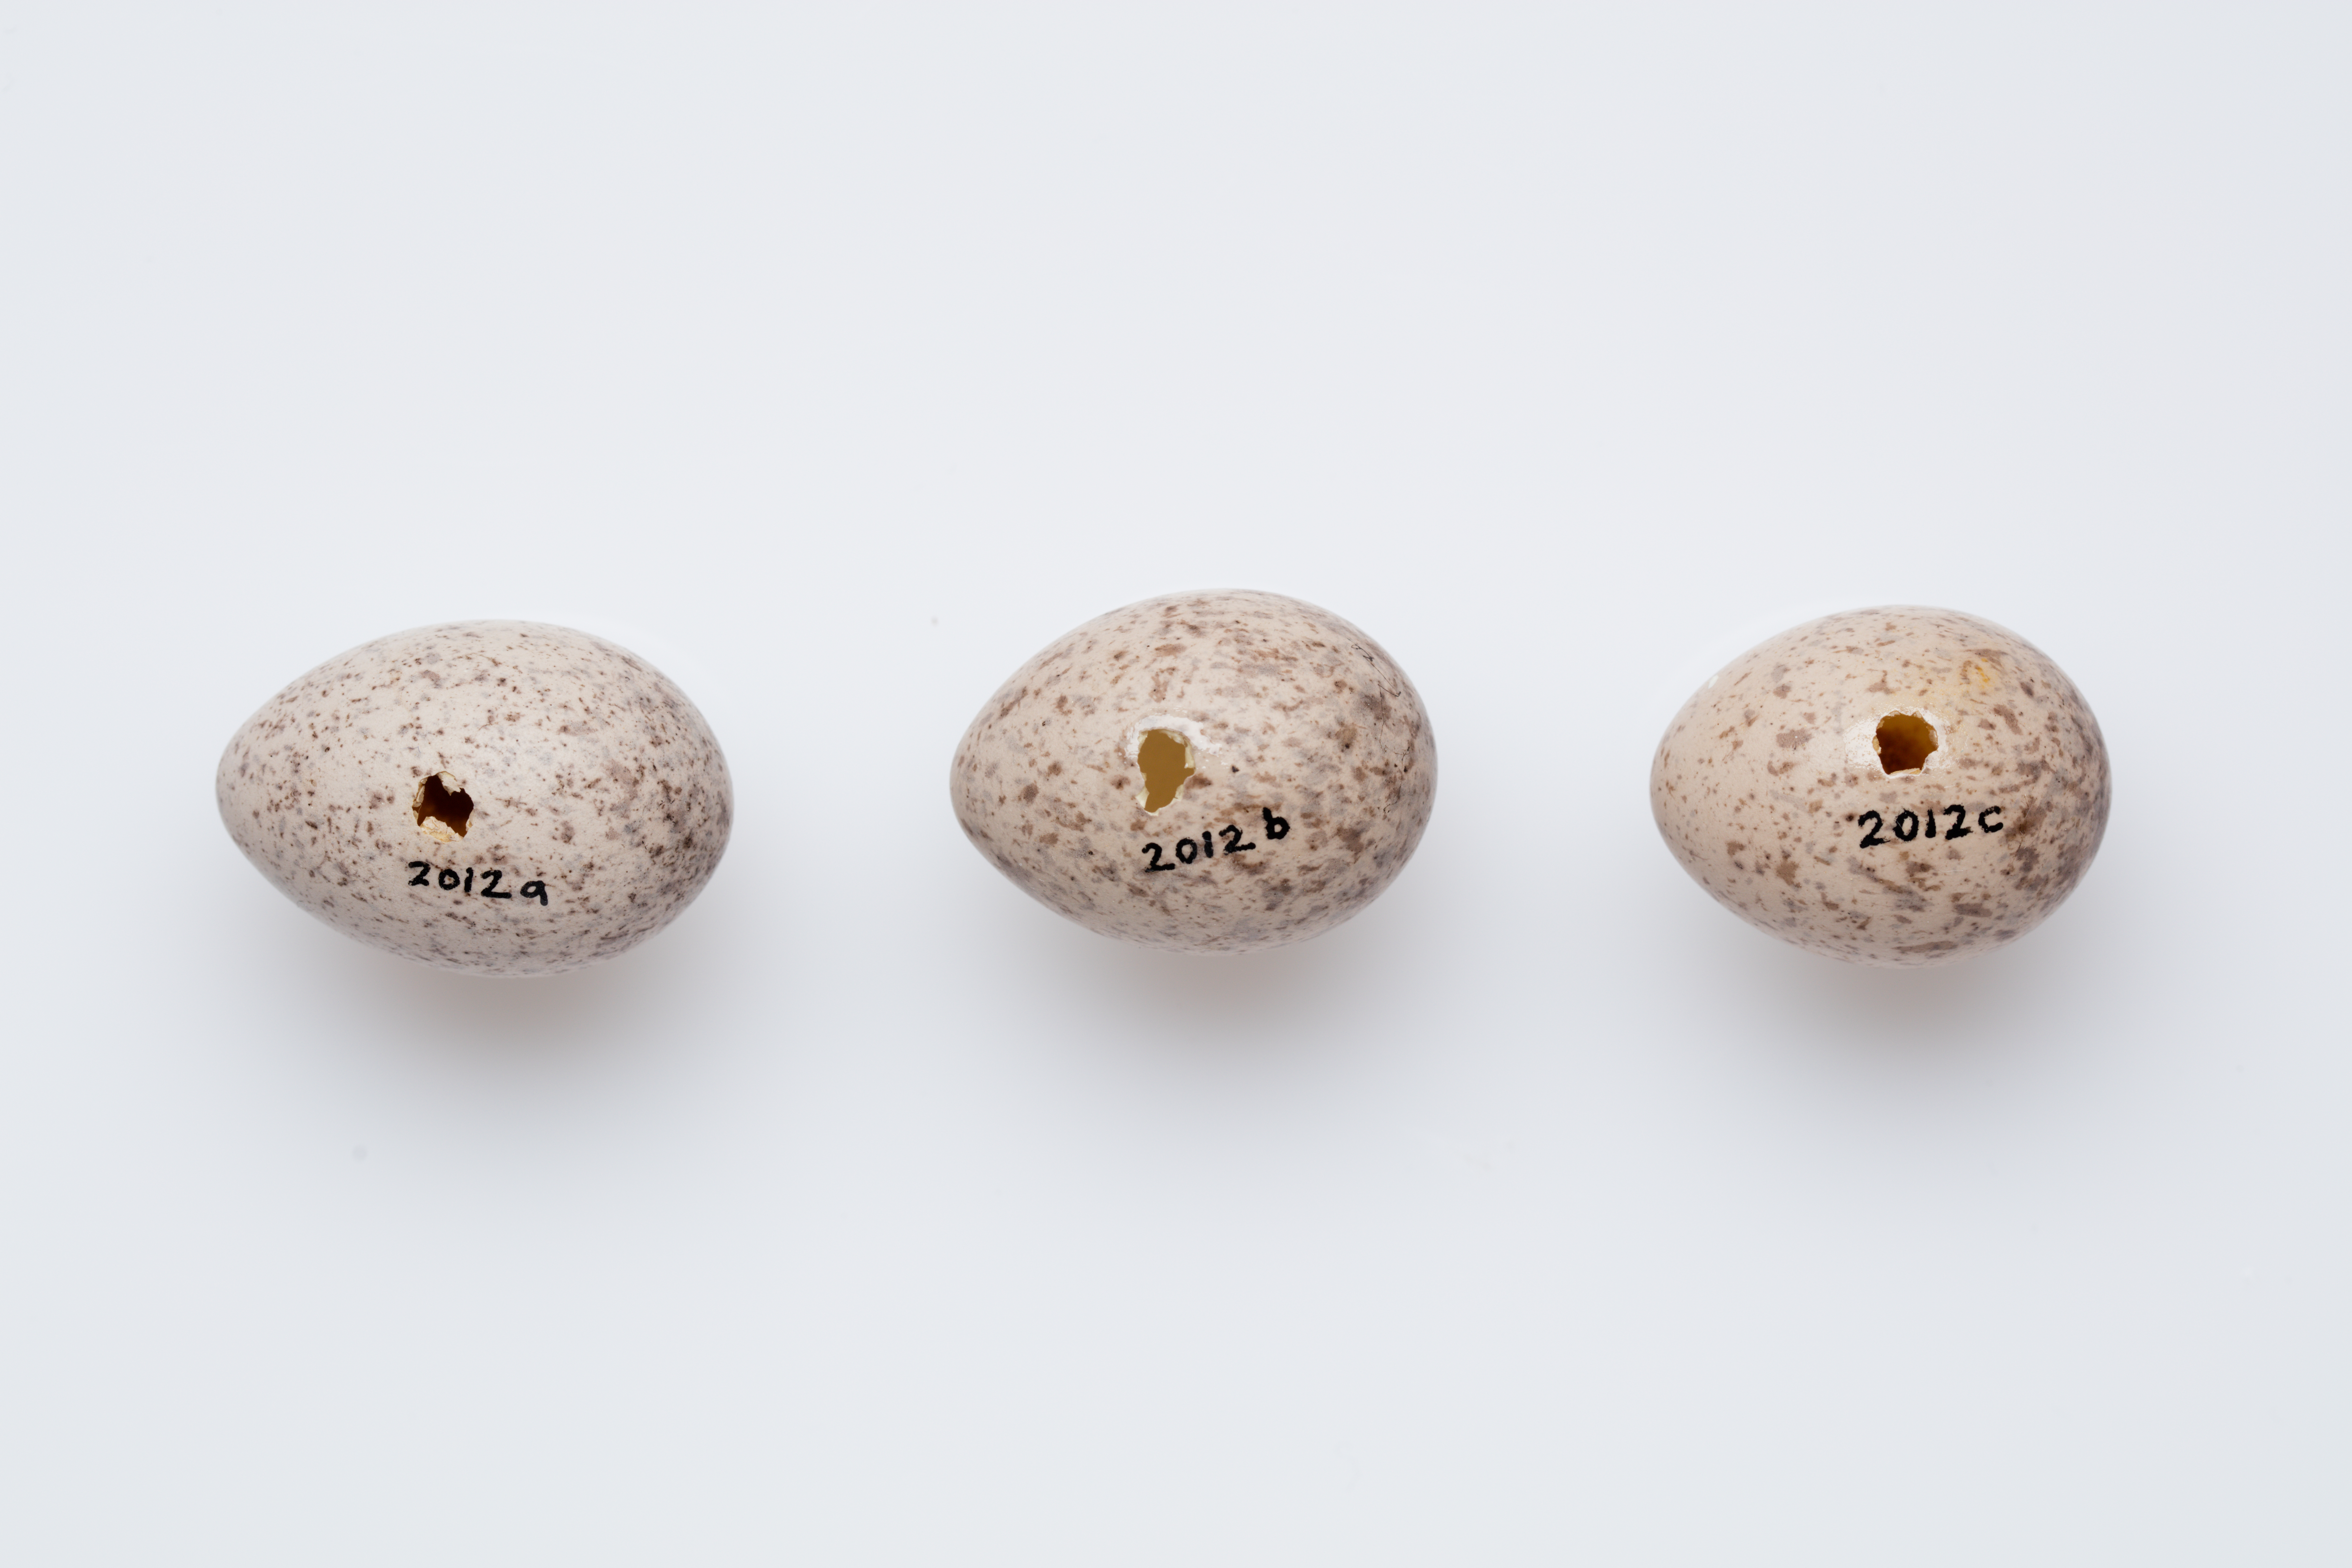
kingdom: Animalia
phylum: Chordata
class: Aves
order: Passeriformes
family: Callaeatidae
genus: Philesturnus
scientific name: Philesturnus carunculatus
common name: South island saddleback
